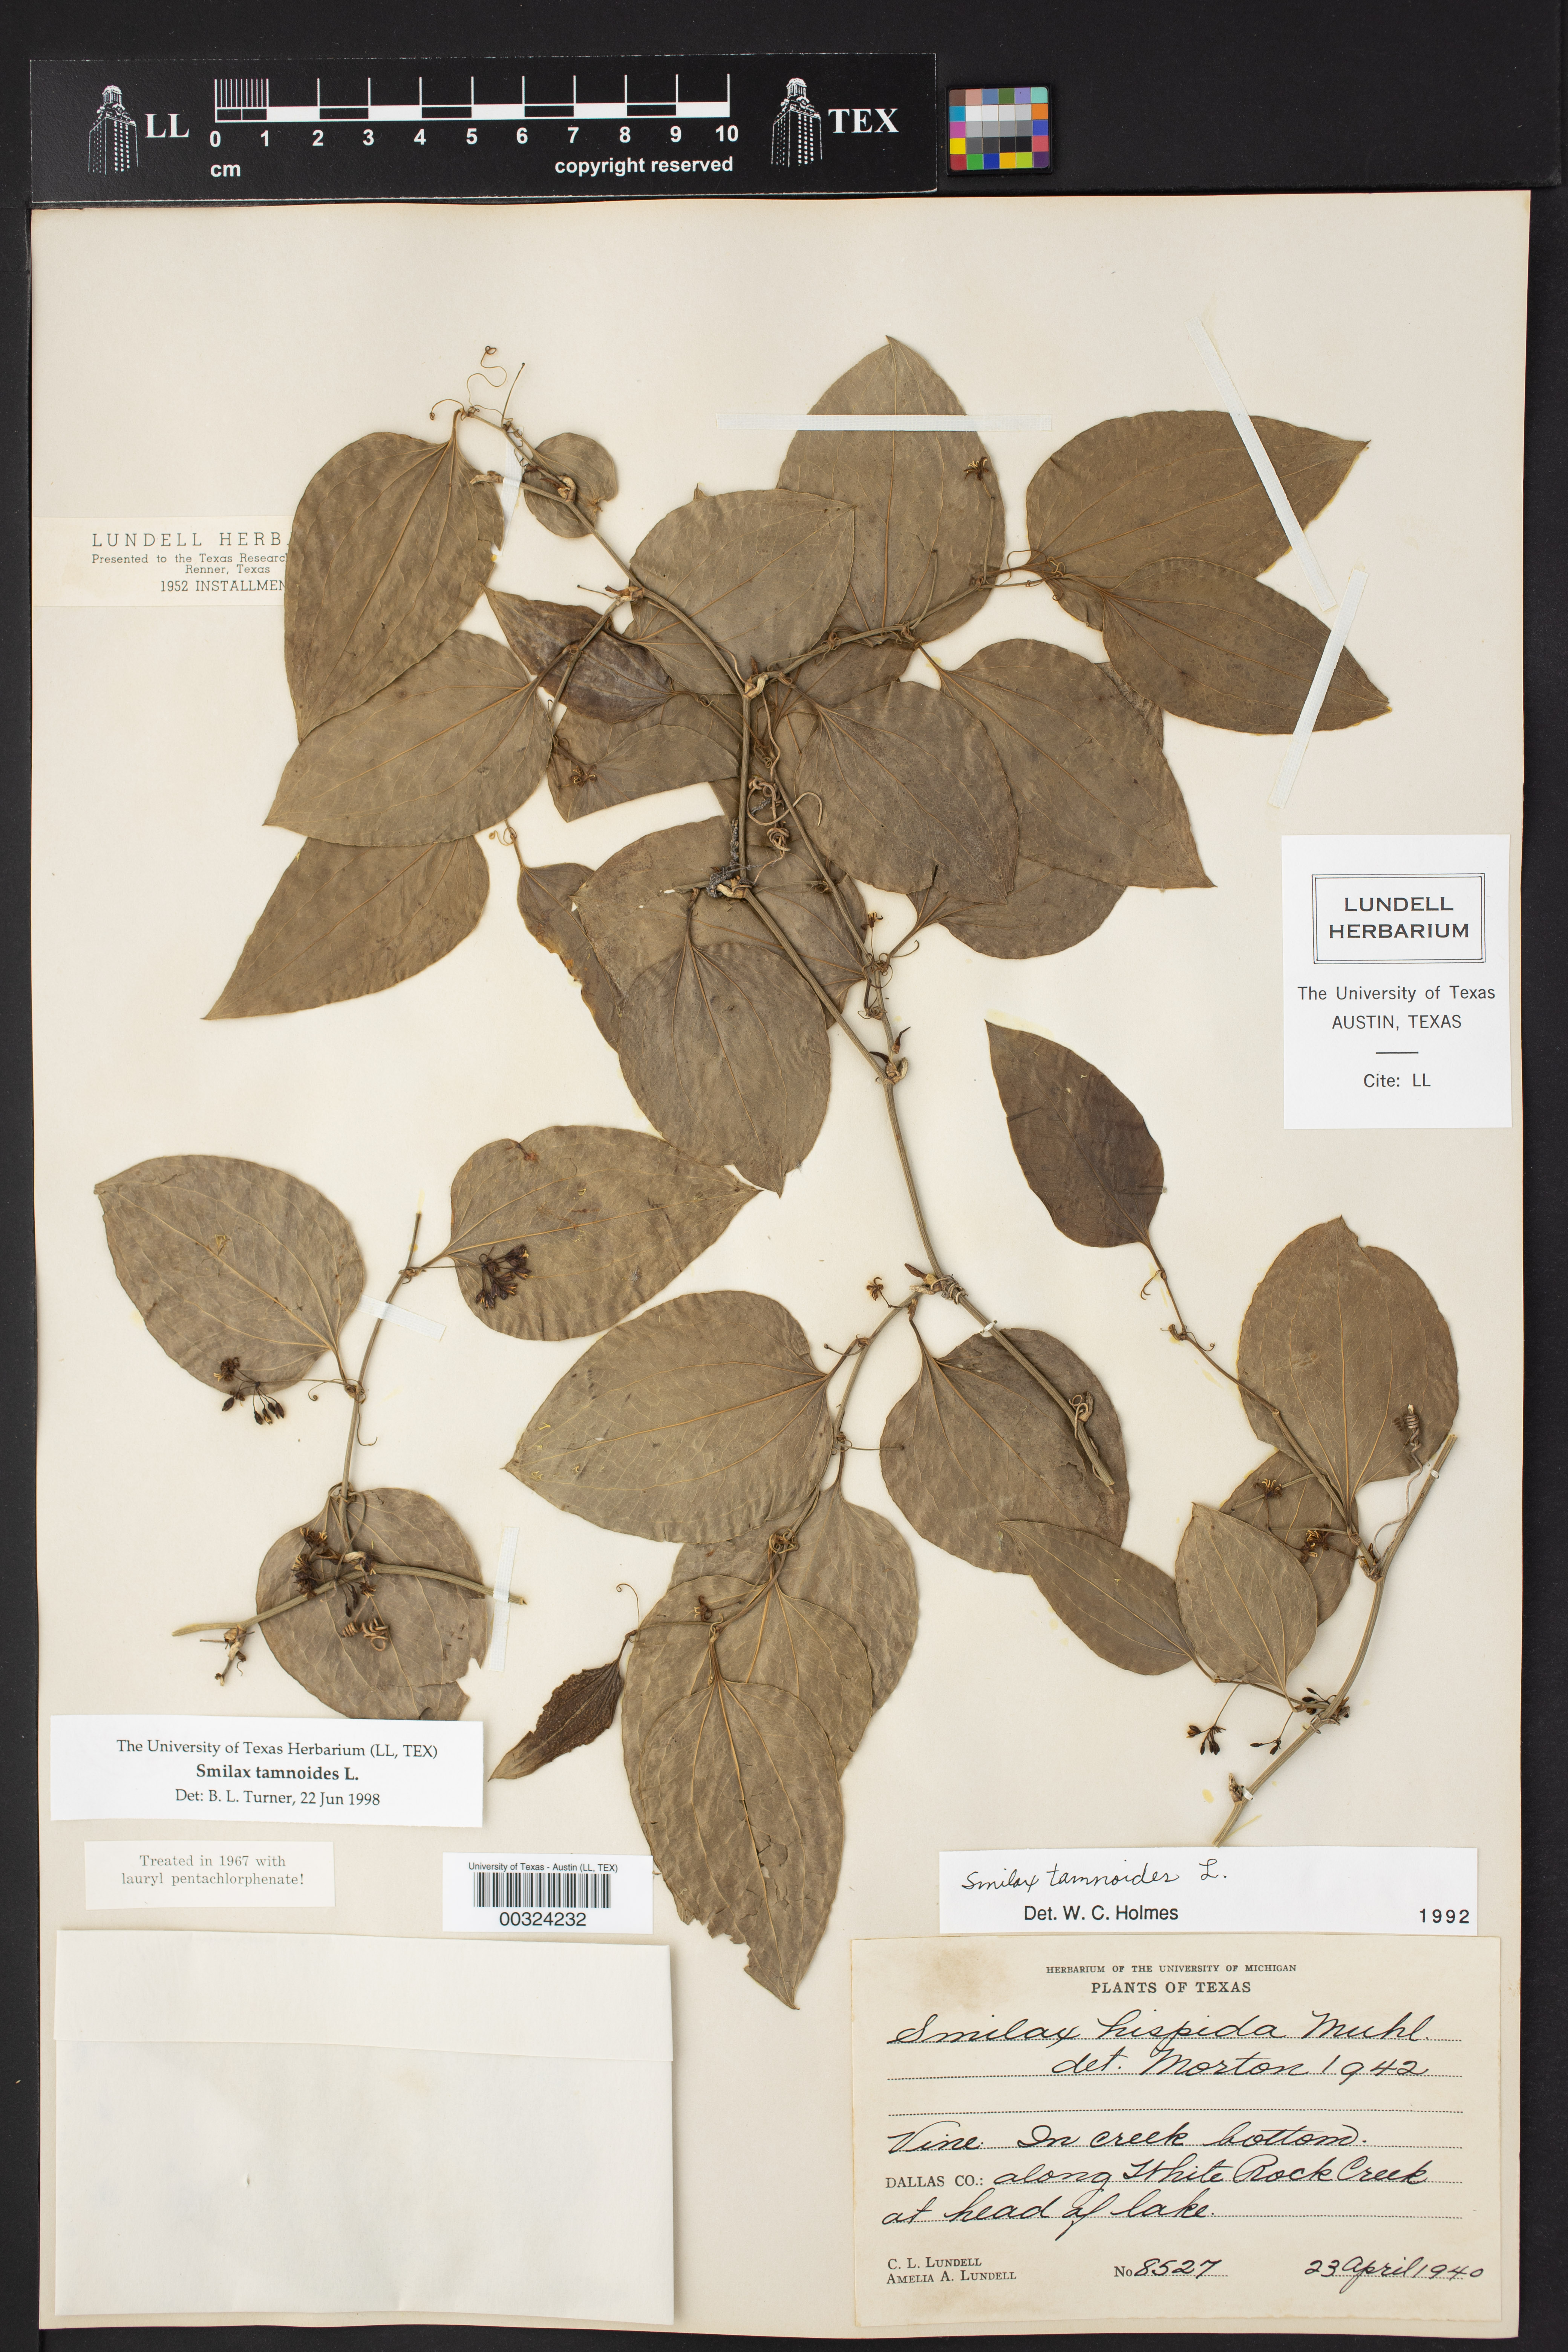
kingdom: Plantae
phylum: Tracheophyta
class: Liliopsida
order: Liliales
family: Smilacaceae
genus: Smilax
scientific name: Smilax tamnoides
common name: Hellfetter
